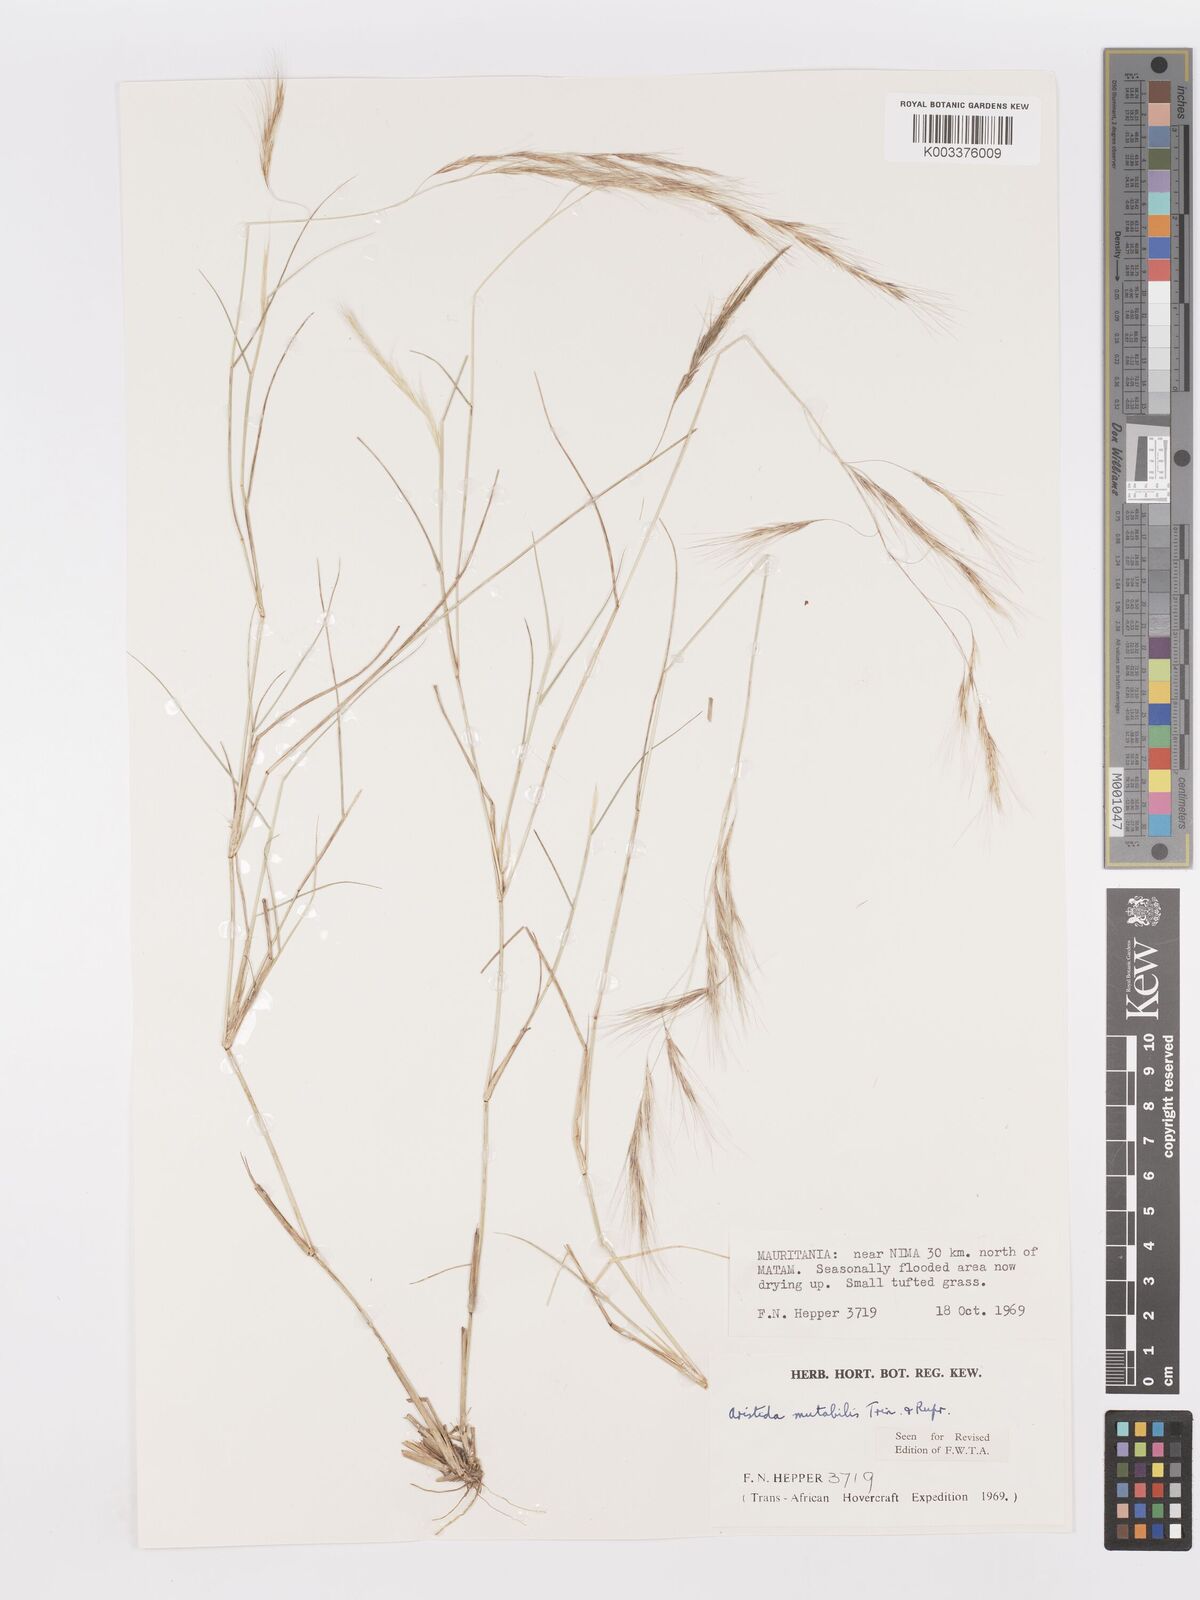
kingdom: Plantae
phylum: Tracheophyta
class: Liliopsida
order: Poales
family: Poaceae
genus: Aristida
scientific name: Aristida mutabilis
